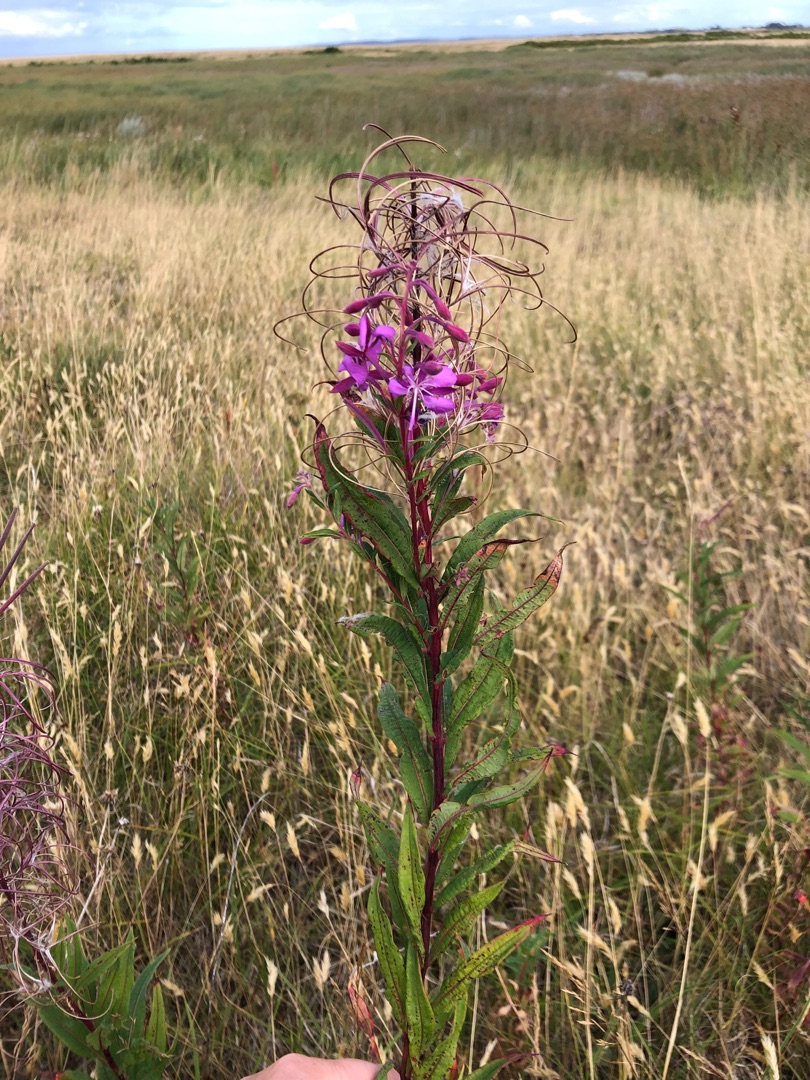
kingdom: Plantae
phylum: Tracheophyta
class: Magnoliopsida
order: Myrtales
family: Onagraceae
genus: Chamaenerion
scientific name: Chamaenerion angustifolium
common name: Gederams
